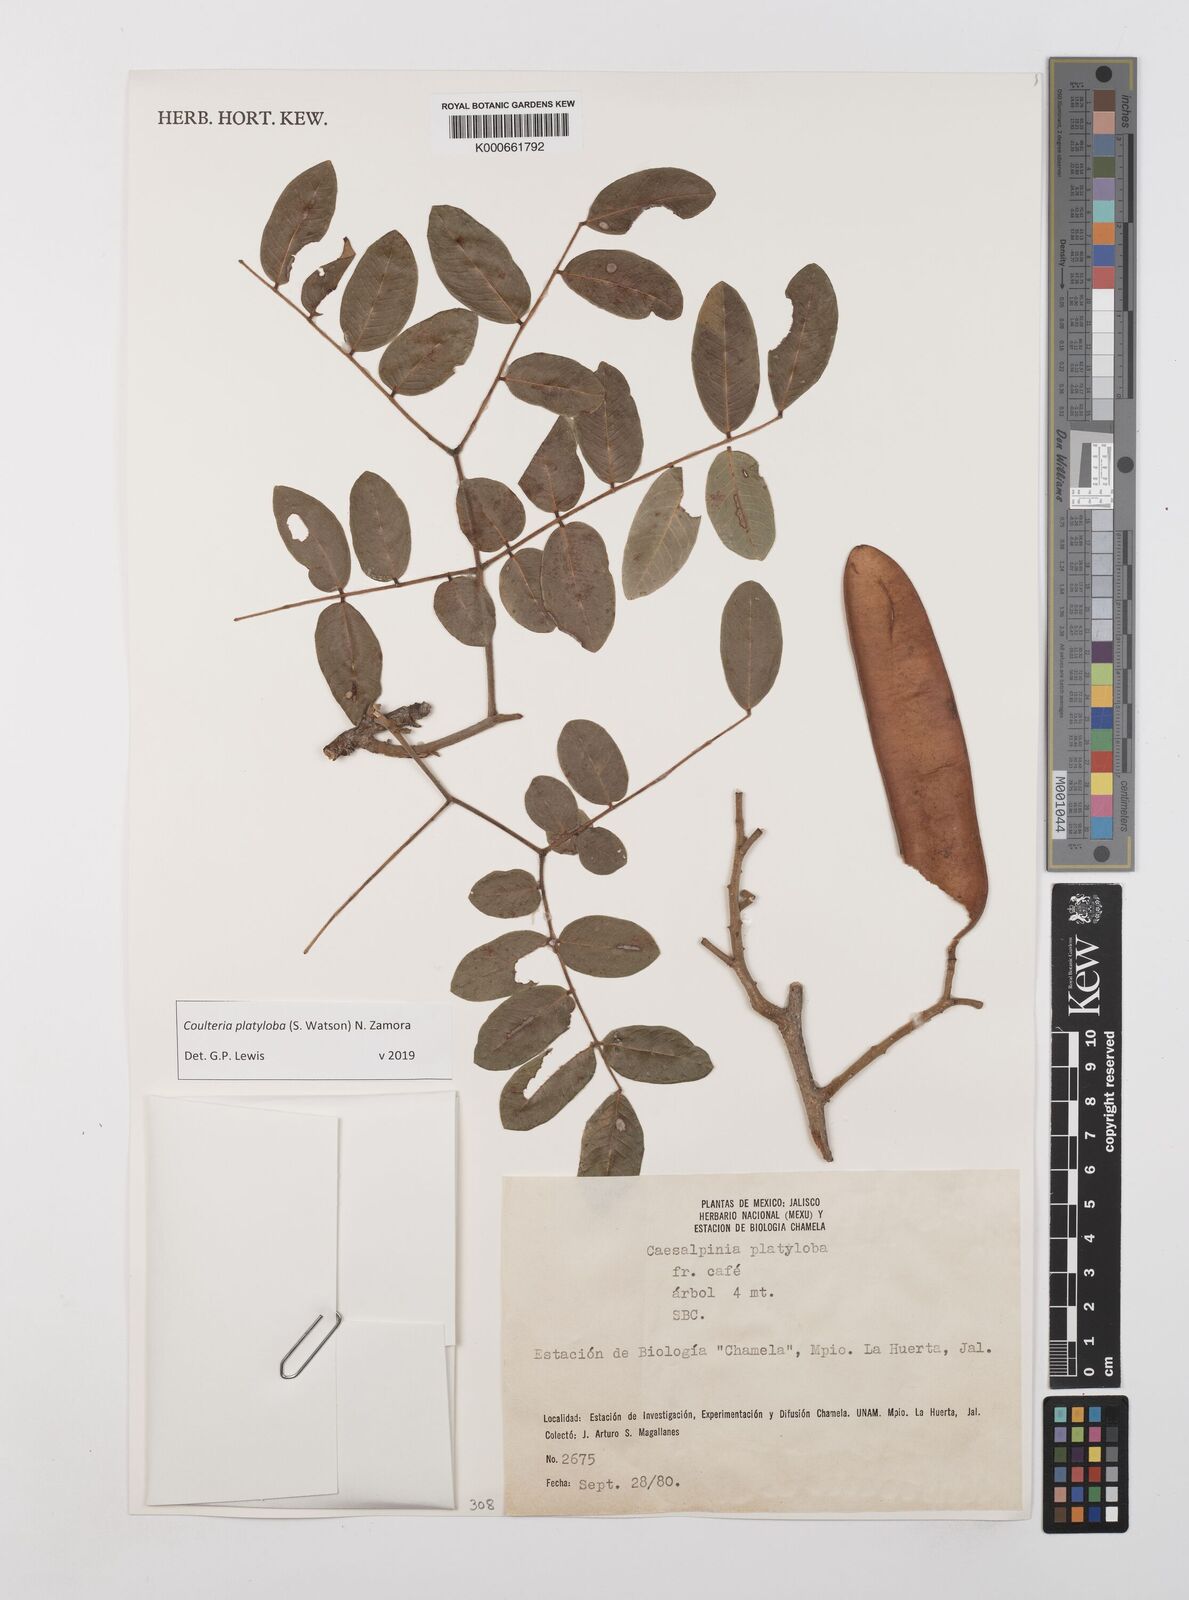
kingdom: Plantae
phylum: Tracheophyta
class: Magnoliopsida
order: Fabales
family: Fabaceae
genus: Coulteria
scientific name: Coulteria platyloba
